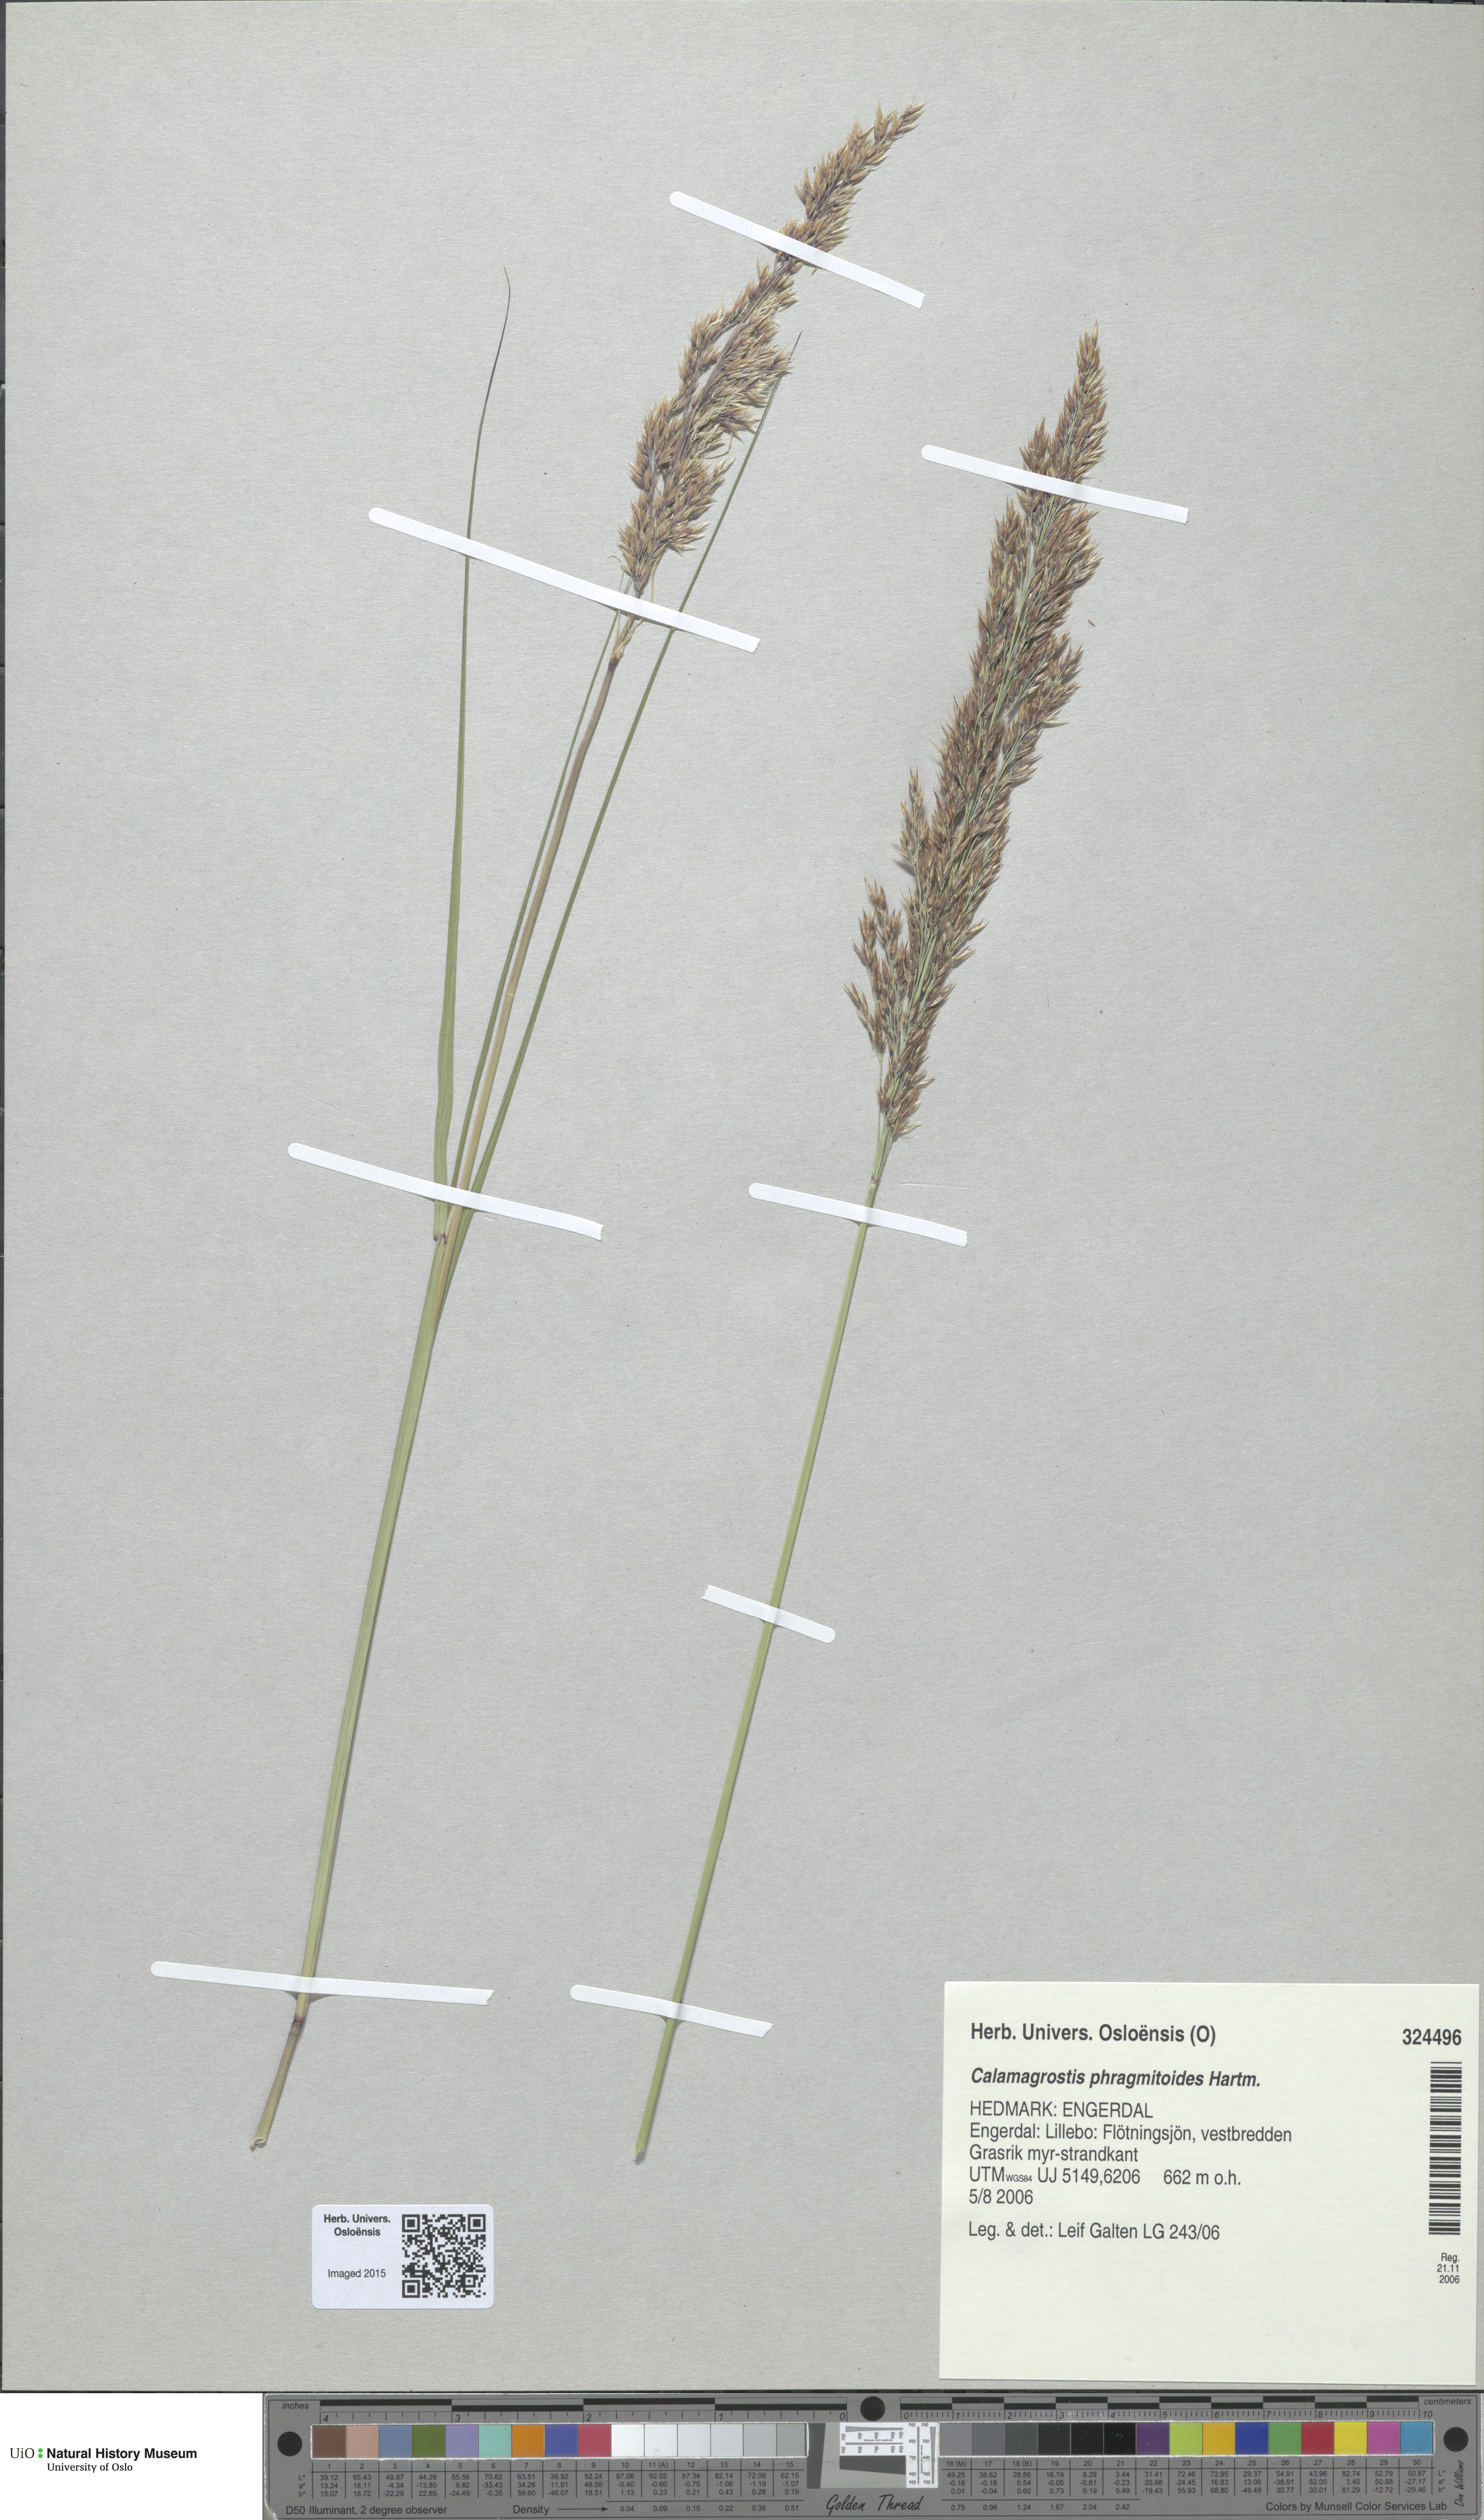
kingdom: Plantae
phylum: Tracheophyta
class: Liliopsida
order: Poales
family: Poaceae
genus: Calamagrostis
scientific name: Calamagrostis purpurea
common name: Scandinavian small-reed
